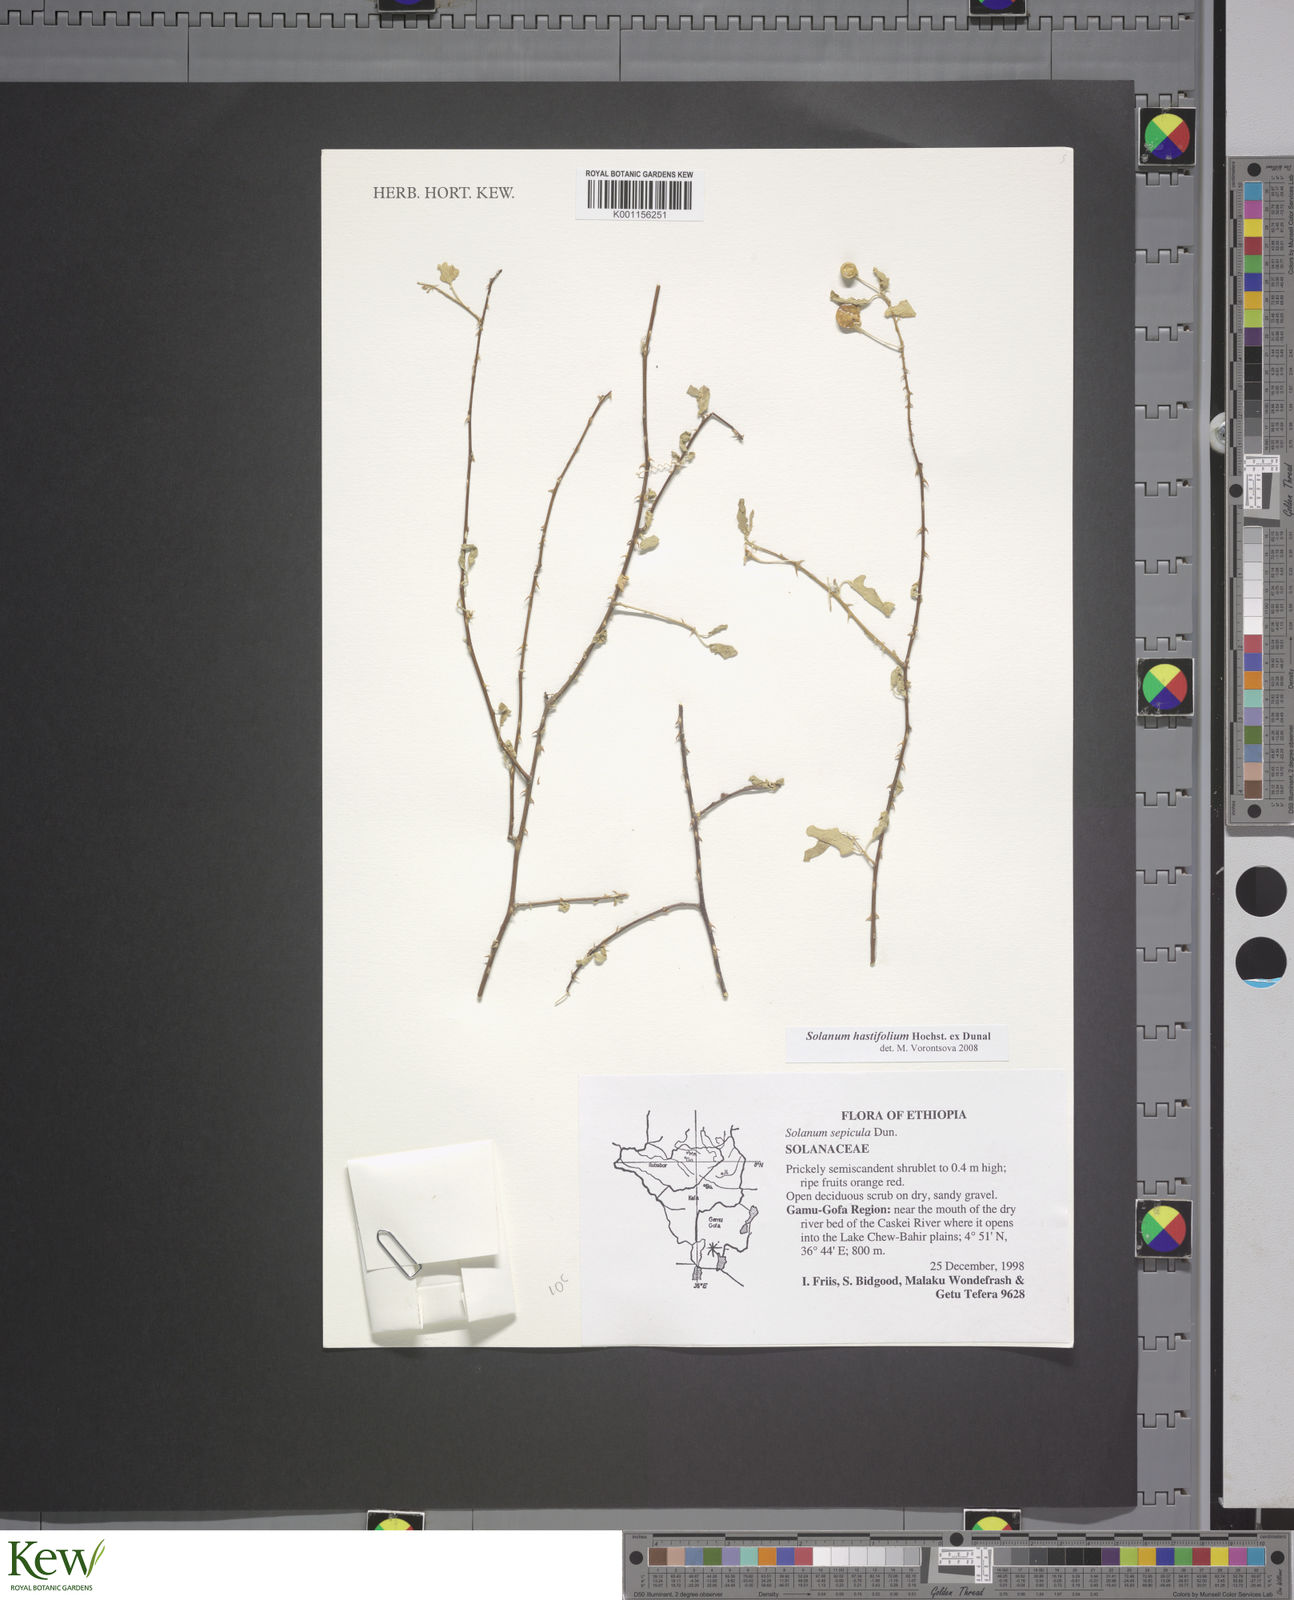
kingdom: Plantae
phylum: Tracheophyta
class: Magnoliopsida
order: Solanales
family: Solanaceae
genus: Solanum
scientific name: Solanum hastifolium
